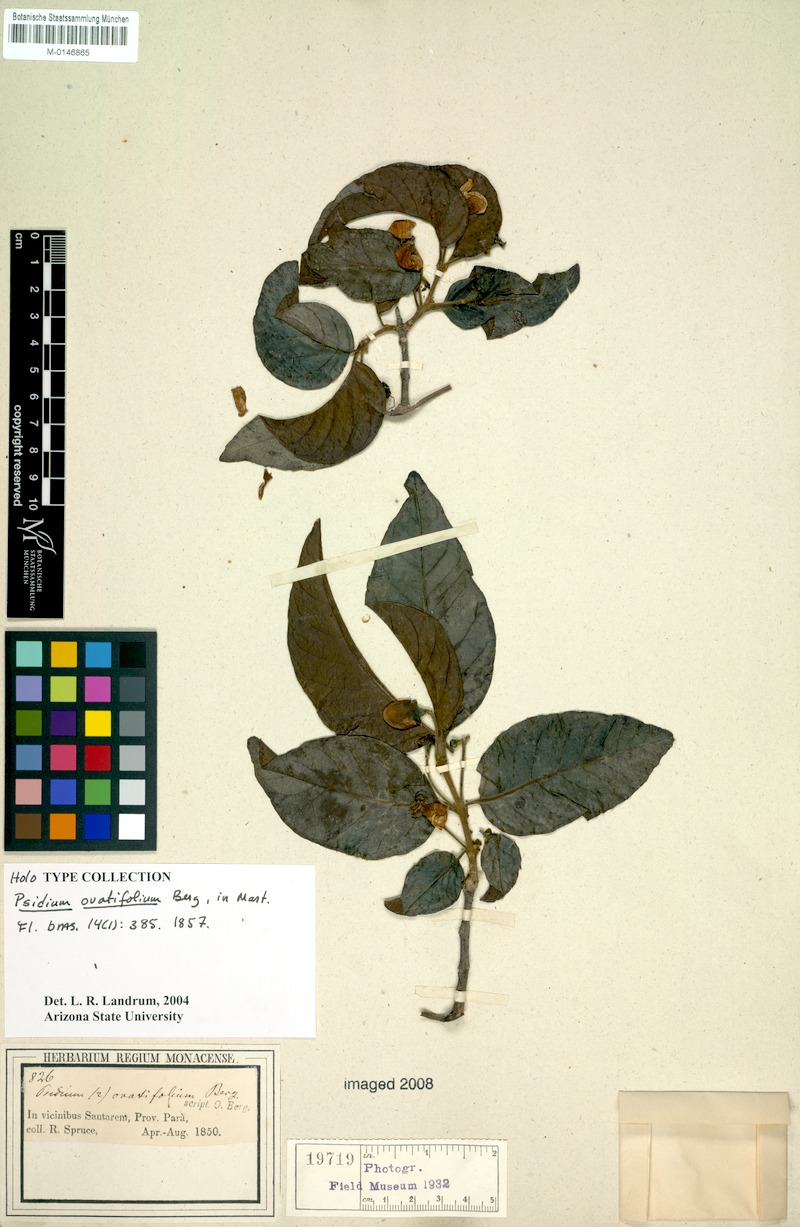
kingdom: Plantae
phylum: Tracheophyta
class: Magnoliopsida
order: Myrtales
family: Myrtaceae
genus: Psidium
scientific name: Psidium densicomum
